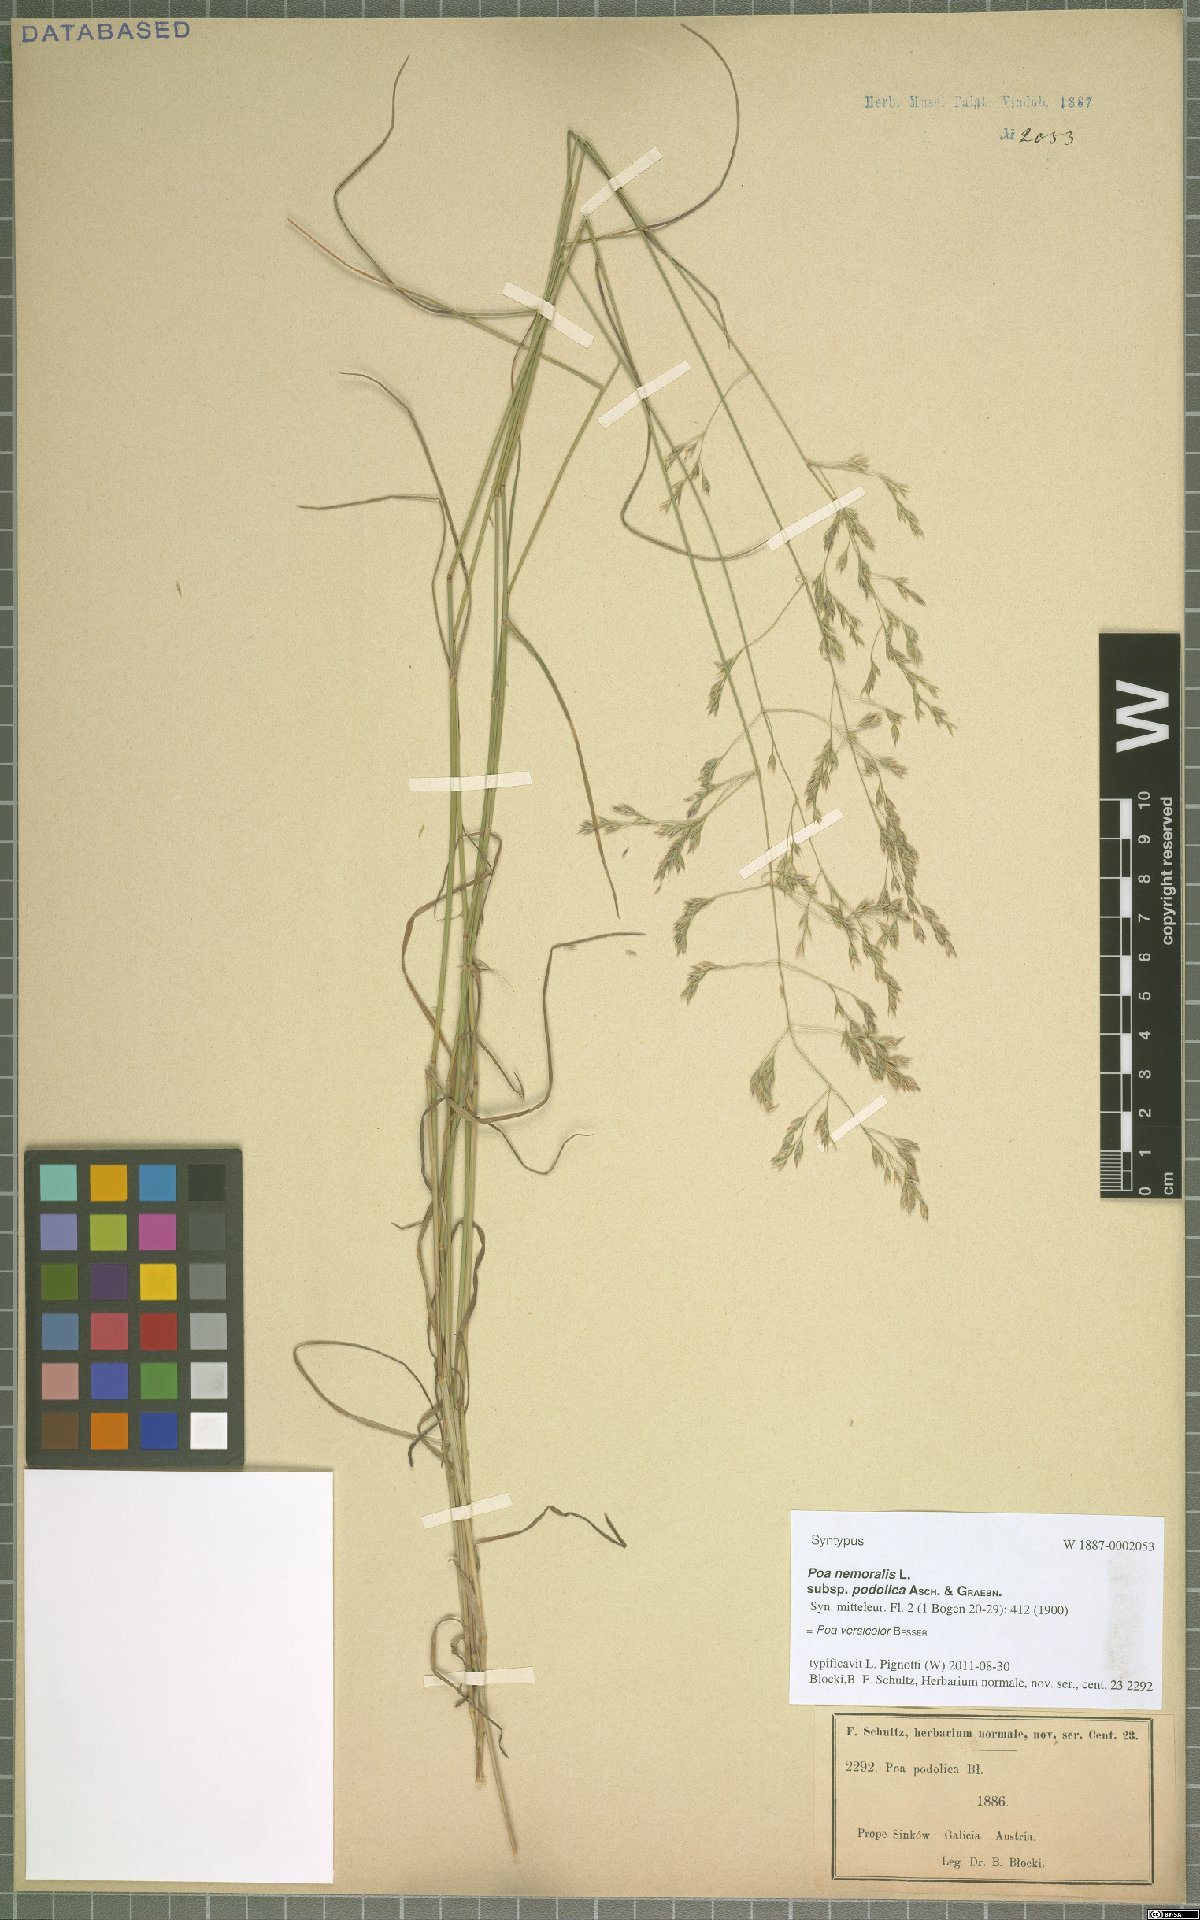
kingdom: Plantae
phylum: Tracheophyta
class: Liliopsida
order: Poales
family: Poaceae
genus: Poa
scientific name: Poa versicolor
